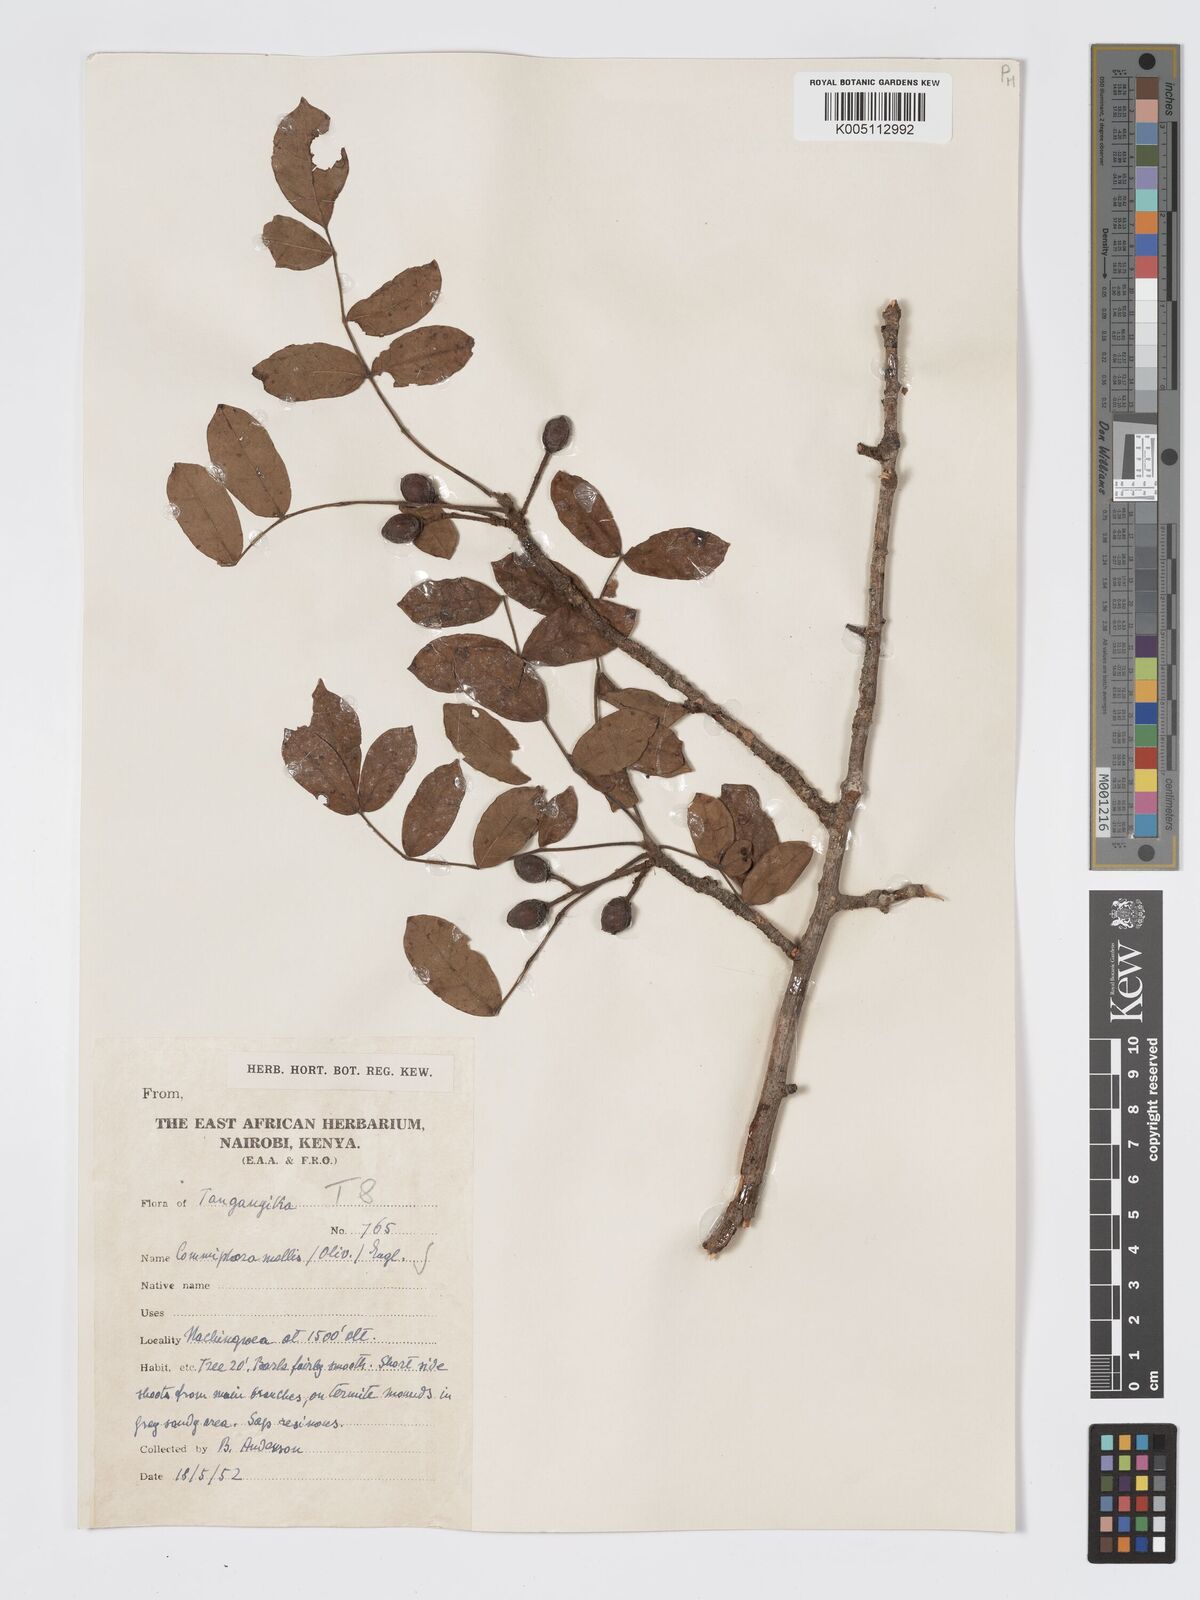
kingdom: Plantae
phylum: Tracheophyta
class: Magnoliopsida
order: Sapindales
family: Burseraceae
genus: Commiphora
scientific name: Commiphora
